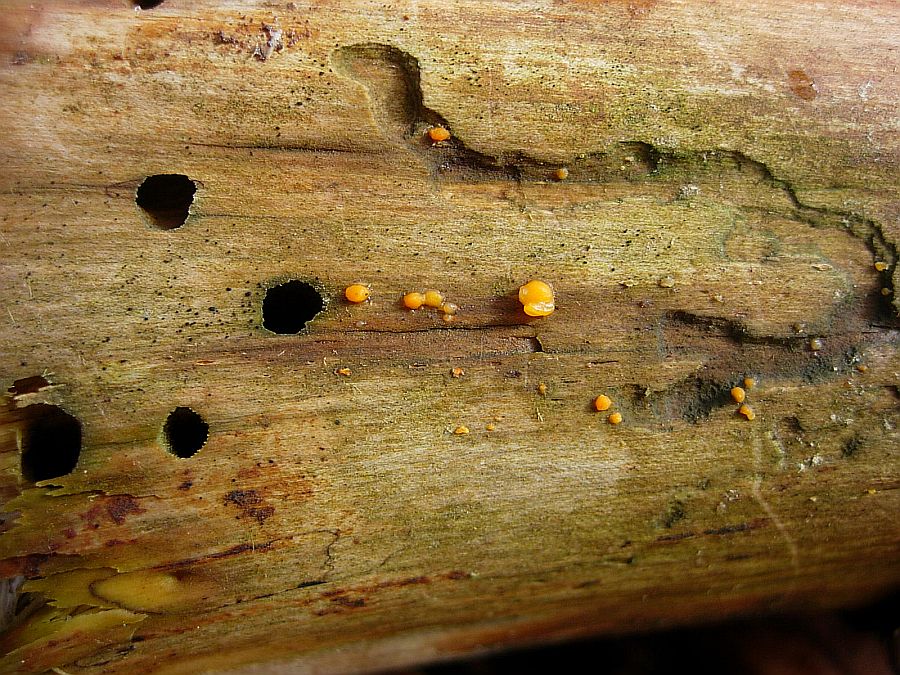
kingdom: Fungi
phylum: Basidiomycota
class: Dacrymycetes
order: Dacrymycetales
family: Dacrymycetaceae
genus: Dacrymyces
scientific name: Dacrymyces stillatus
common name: almindelig tåresvamp
